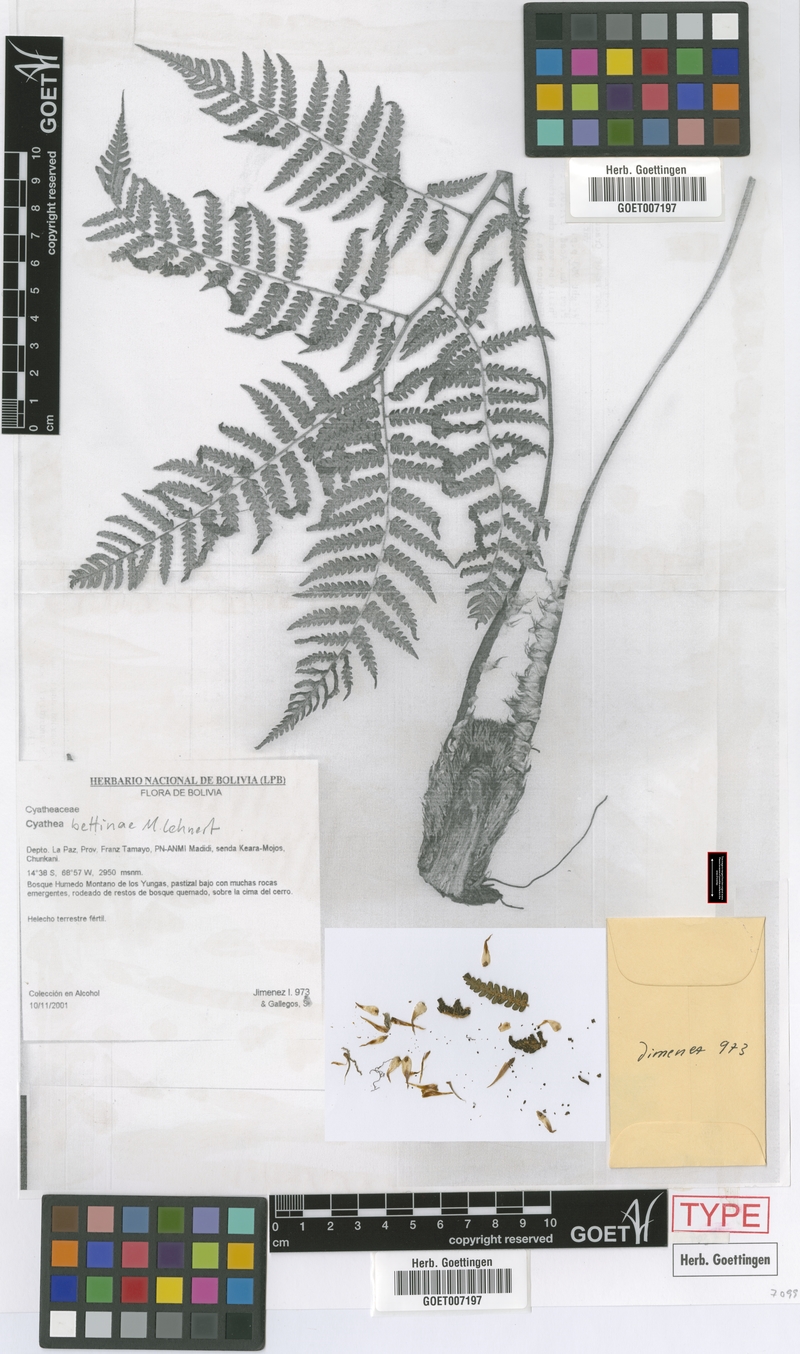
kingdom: Plantae
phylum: Tracheophyta
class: Polypodiopsida
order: Cyatheales
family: Cyatheaceae
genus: Cyathea
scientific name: Cyathea bettinae
